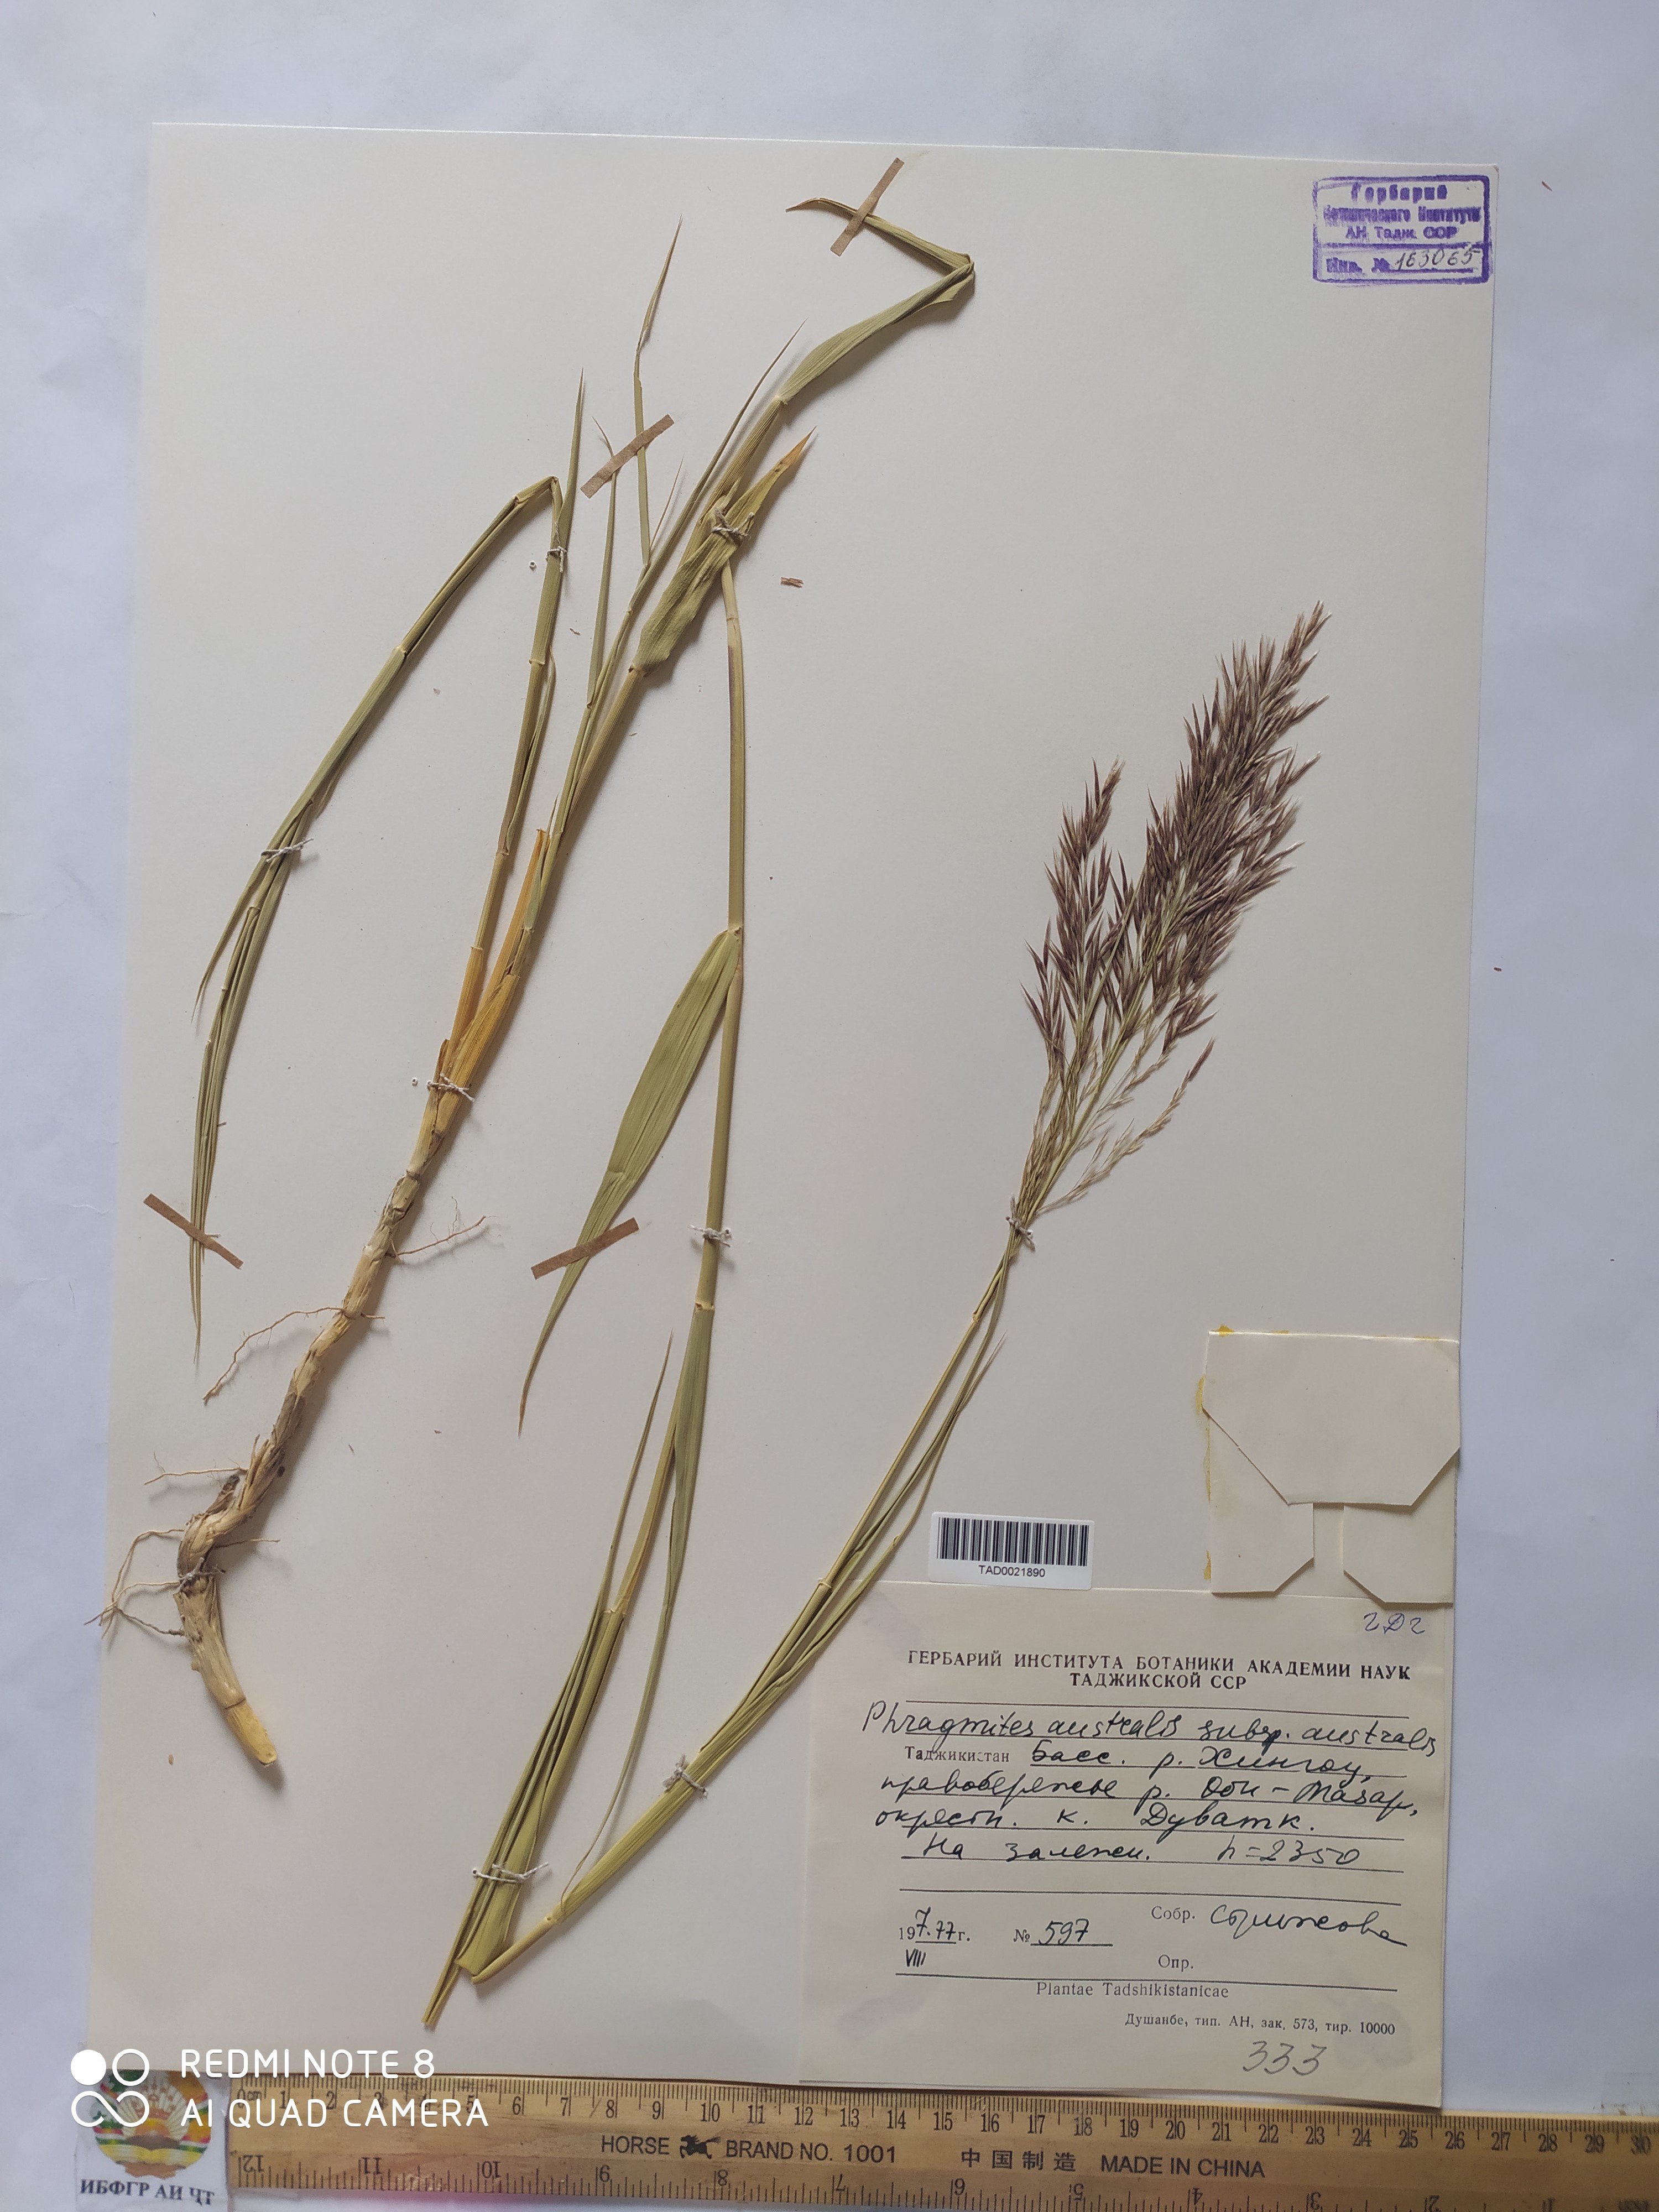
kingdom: Plantae
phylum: Tracheophyta
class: Liliopsida
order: Poales
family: Poaceae
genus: Phragmites
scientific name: Phragmites australis
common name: Common reed
